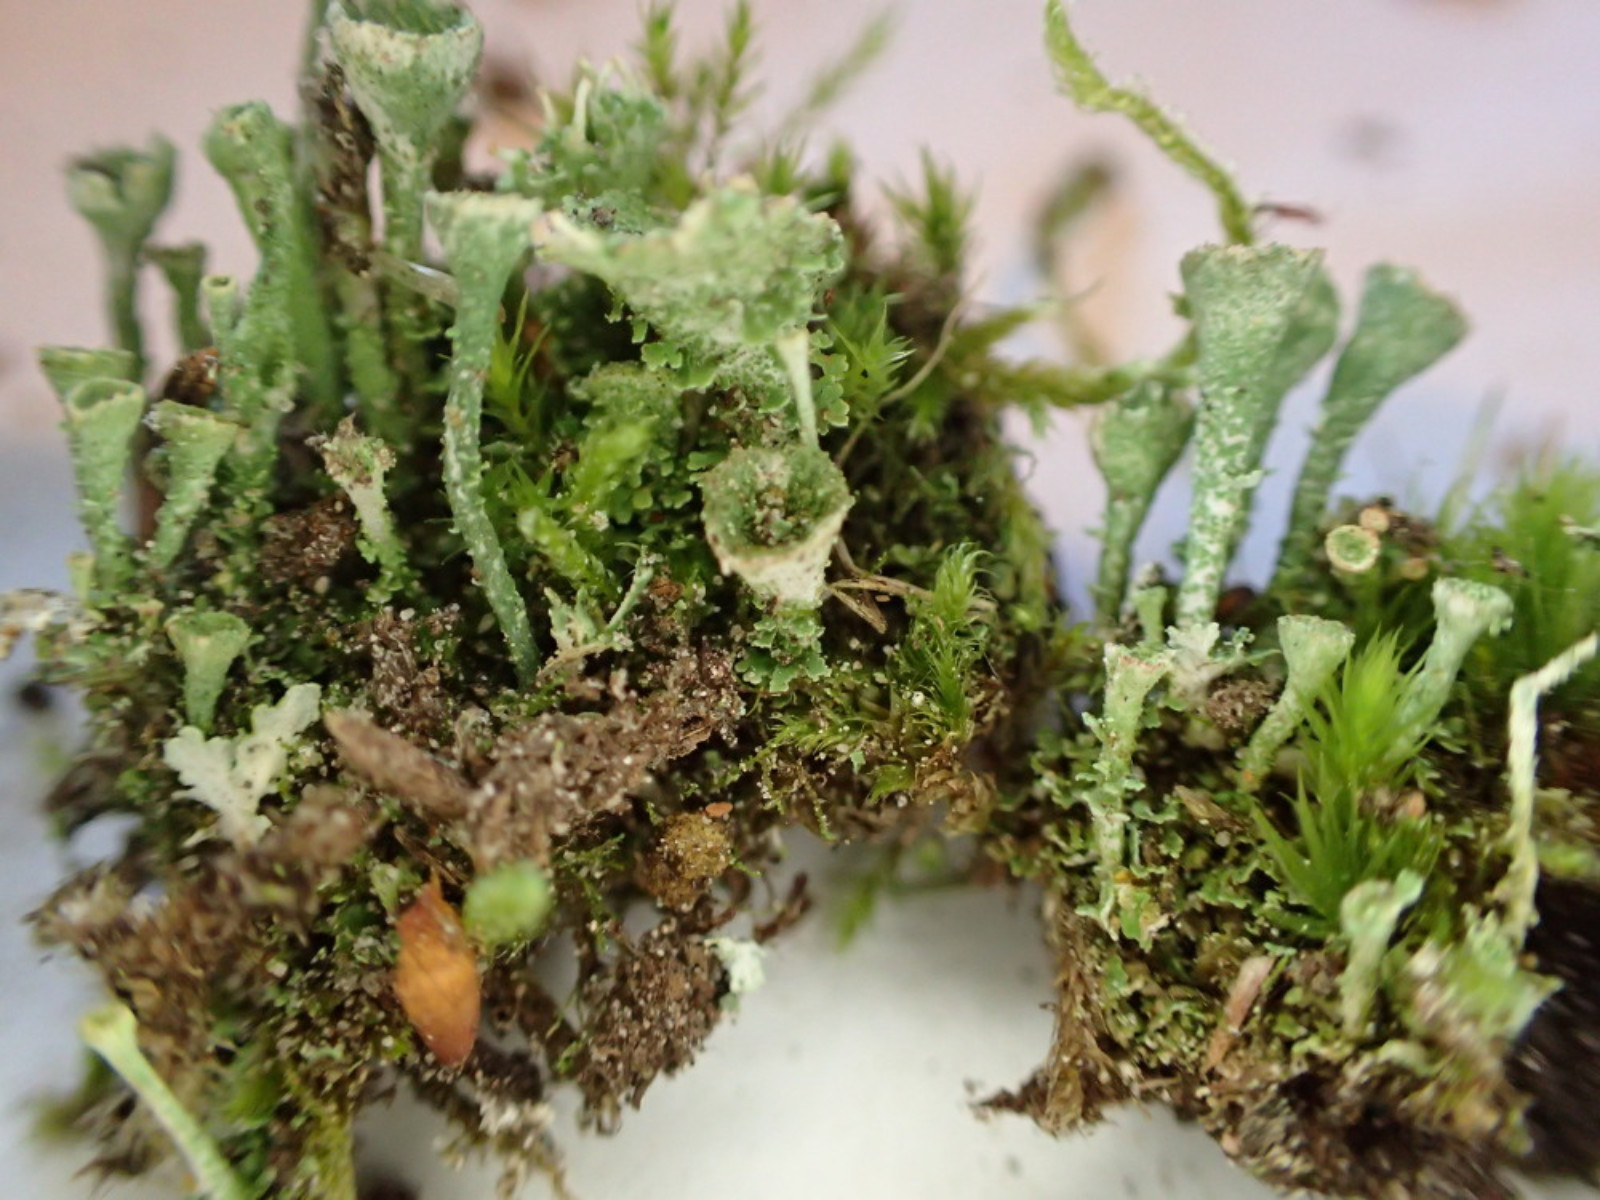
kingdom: Fungi
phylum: Ascomycota
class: Lecanoromycetes
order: Lecanorales
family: Cladoniaceae
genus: Cladonia
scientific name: Cladonia
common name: brungrøn bægerlav
